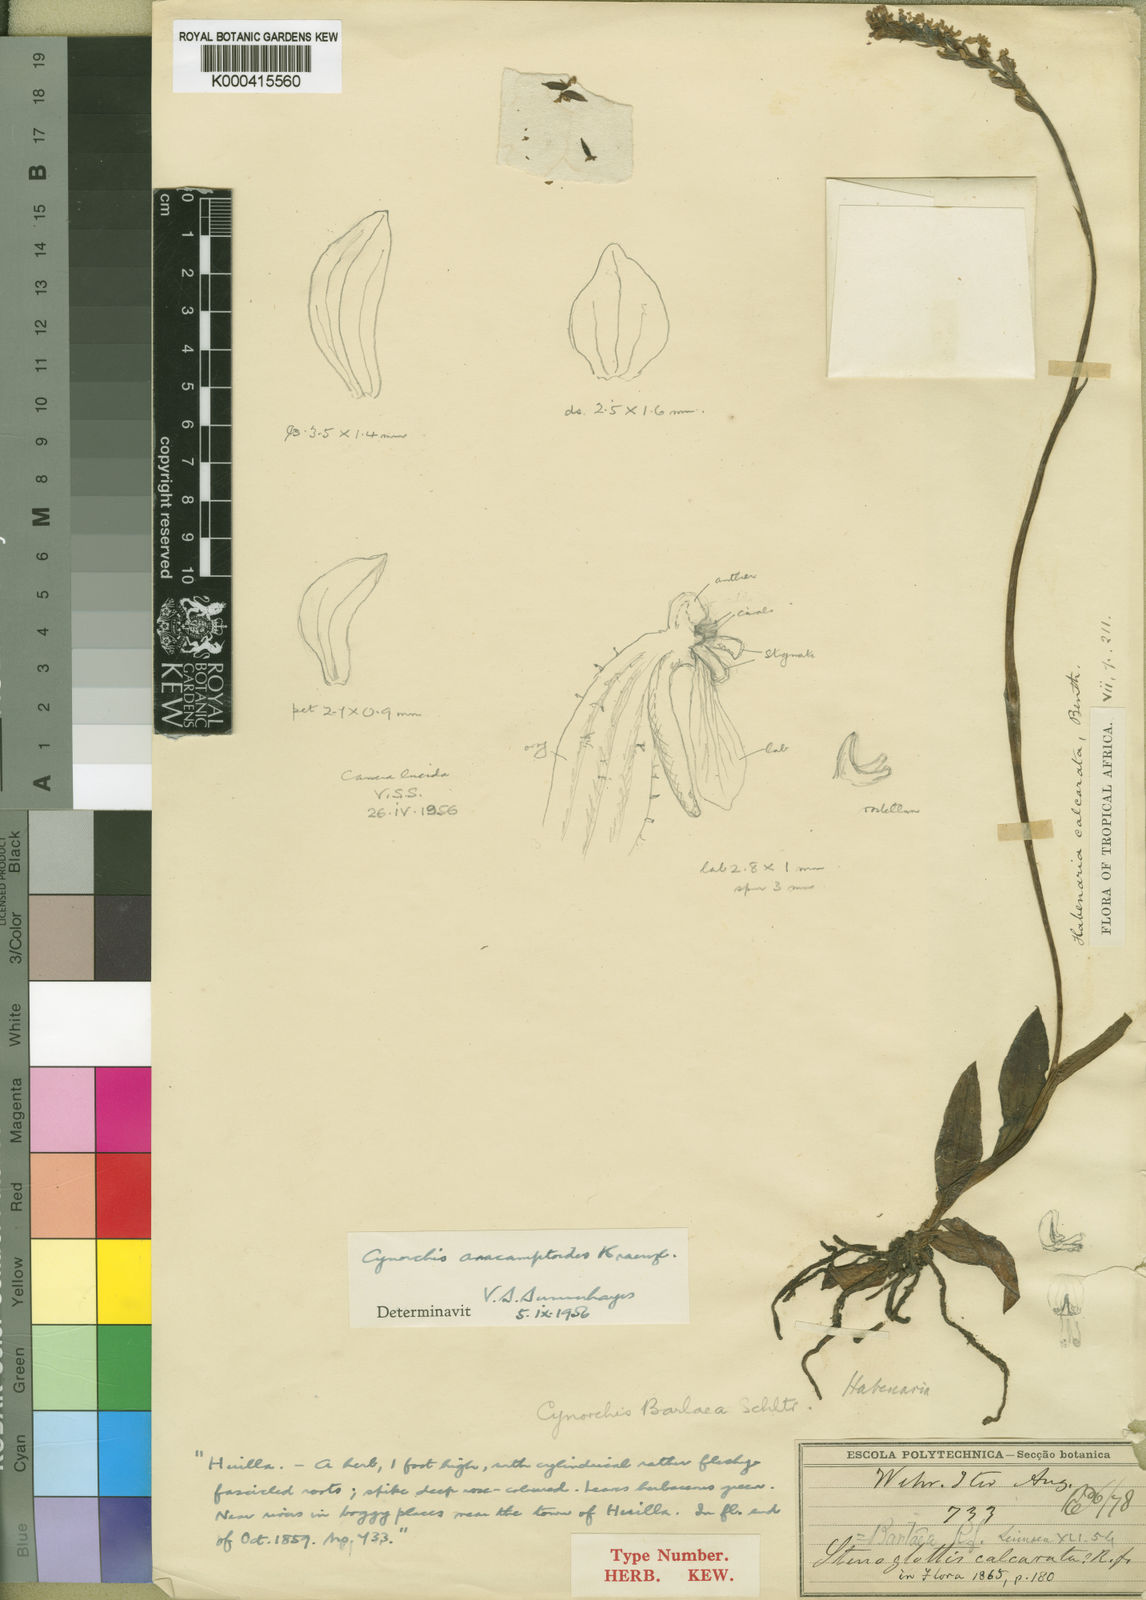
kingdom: Plantae
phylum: Tracheophyta
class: Liliopsida
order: Asparagales
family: Orchidaceae
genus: Cynorkis
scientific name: Cynorkis anacamptoides
